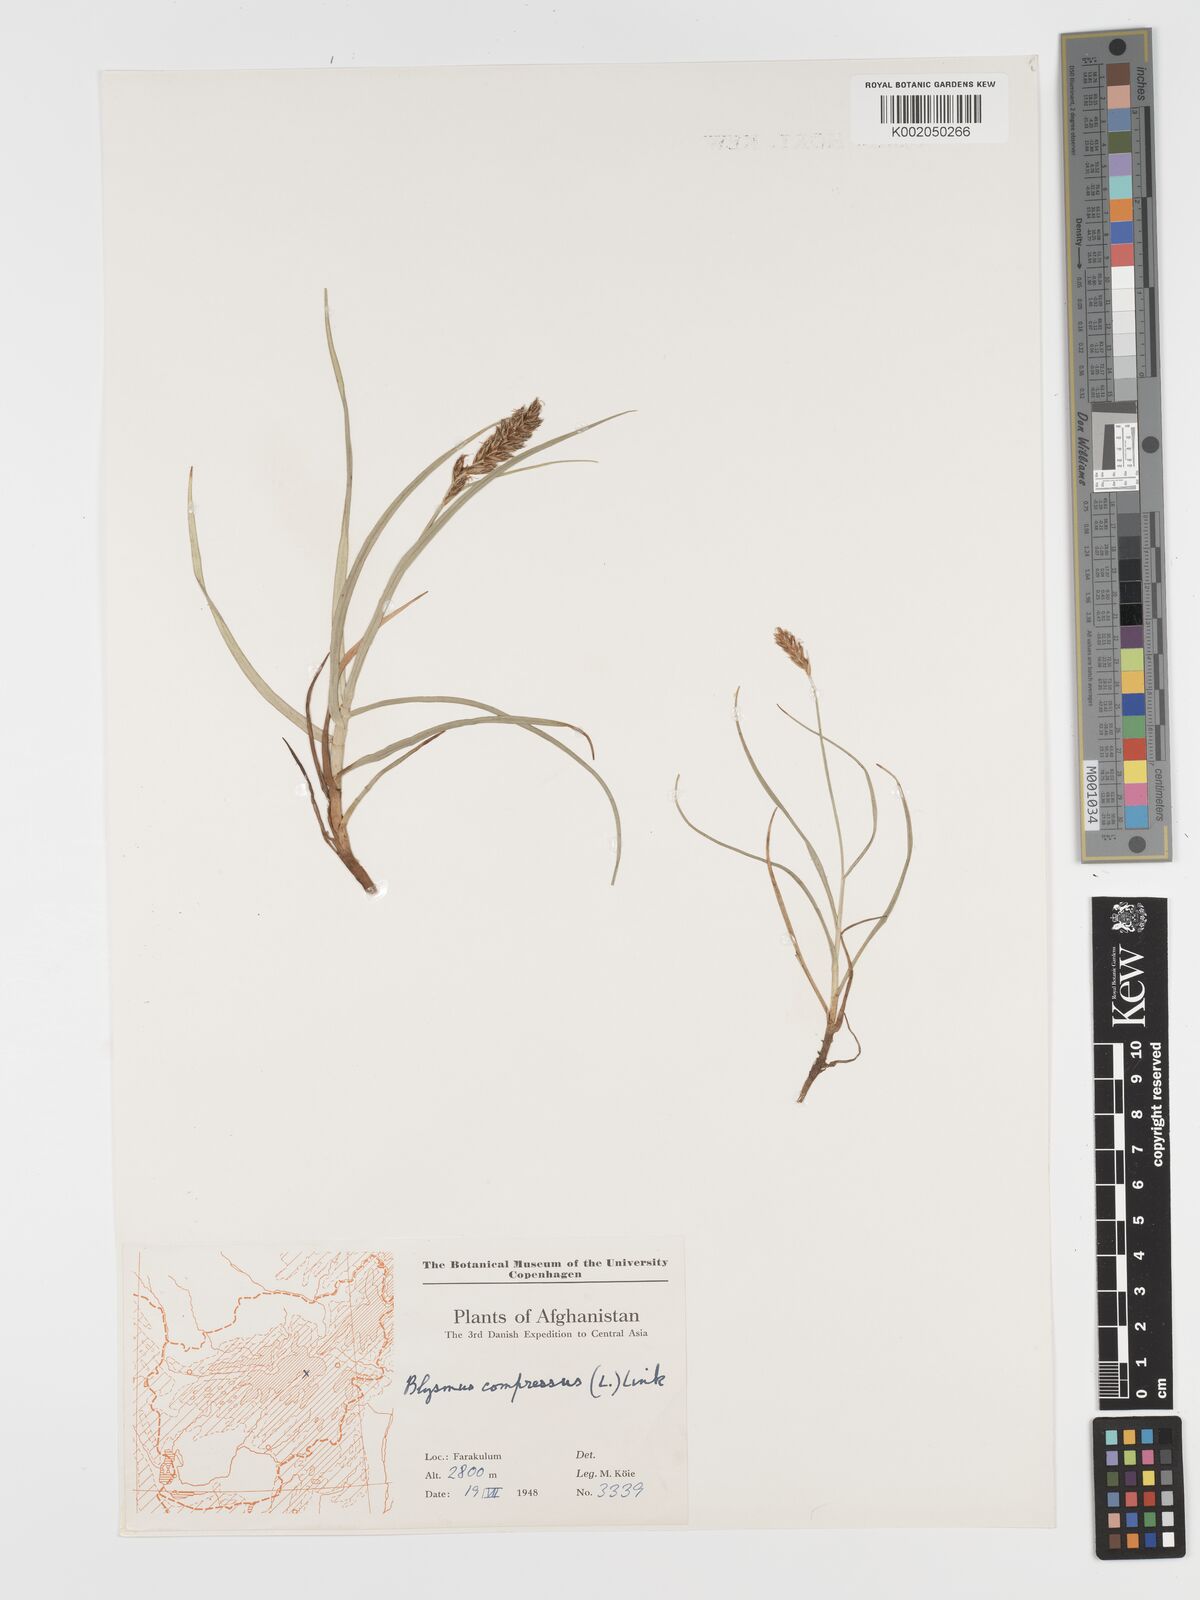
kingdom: Plantae
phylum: Tracheophyta
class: Liliopsida
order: Poales
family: Cyperaceae
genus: Blysmus
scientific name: Blysmus compressus
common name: Flat-sedge
